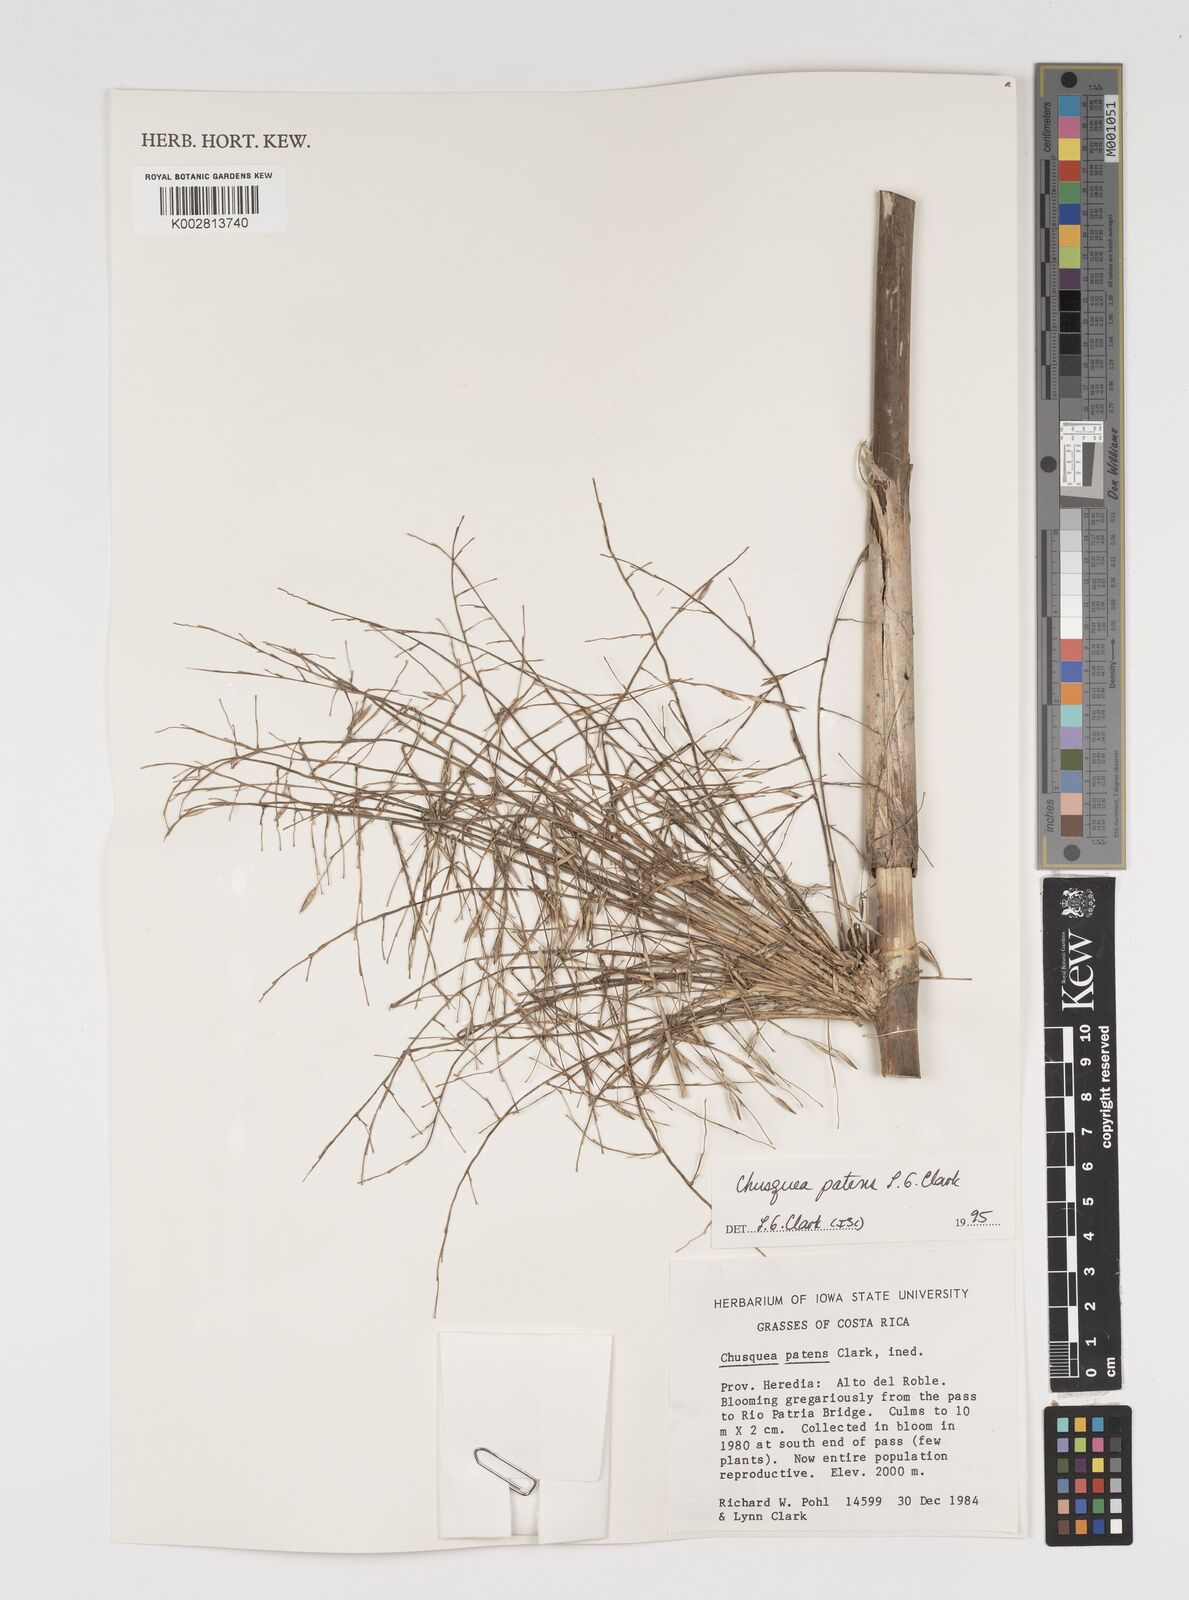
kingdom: Plantae
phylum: Tracheophyta
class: Liliopsida
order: Poales
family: Poaceae
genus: Chusquea
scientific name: Chusquea patens
